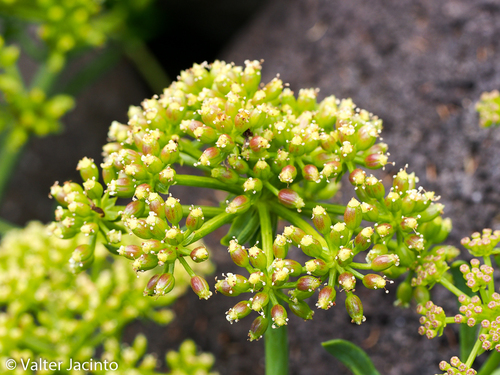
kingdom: Plantae
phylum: Tracheophyta
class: Magnoliopsida
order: Apiales
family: Apiaceae
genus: Crithmum
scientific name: Crithmum maritimum
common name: Rock samphire
